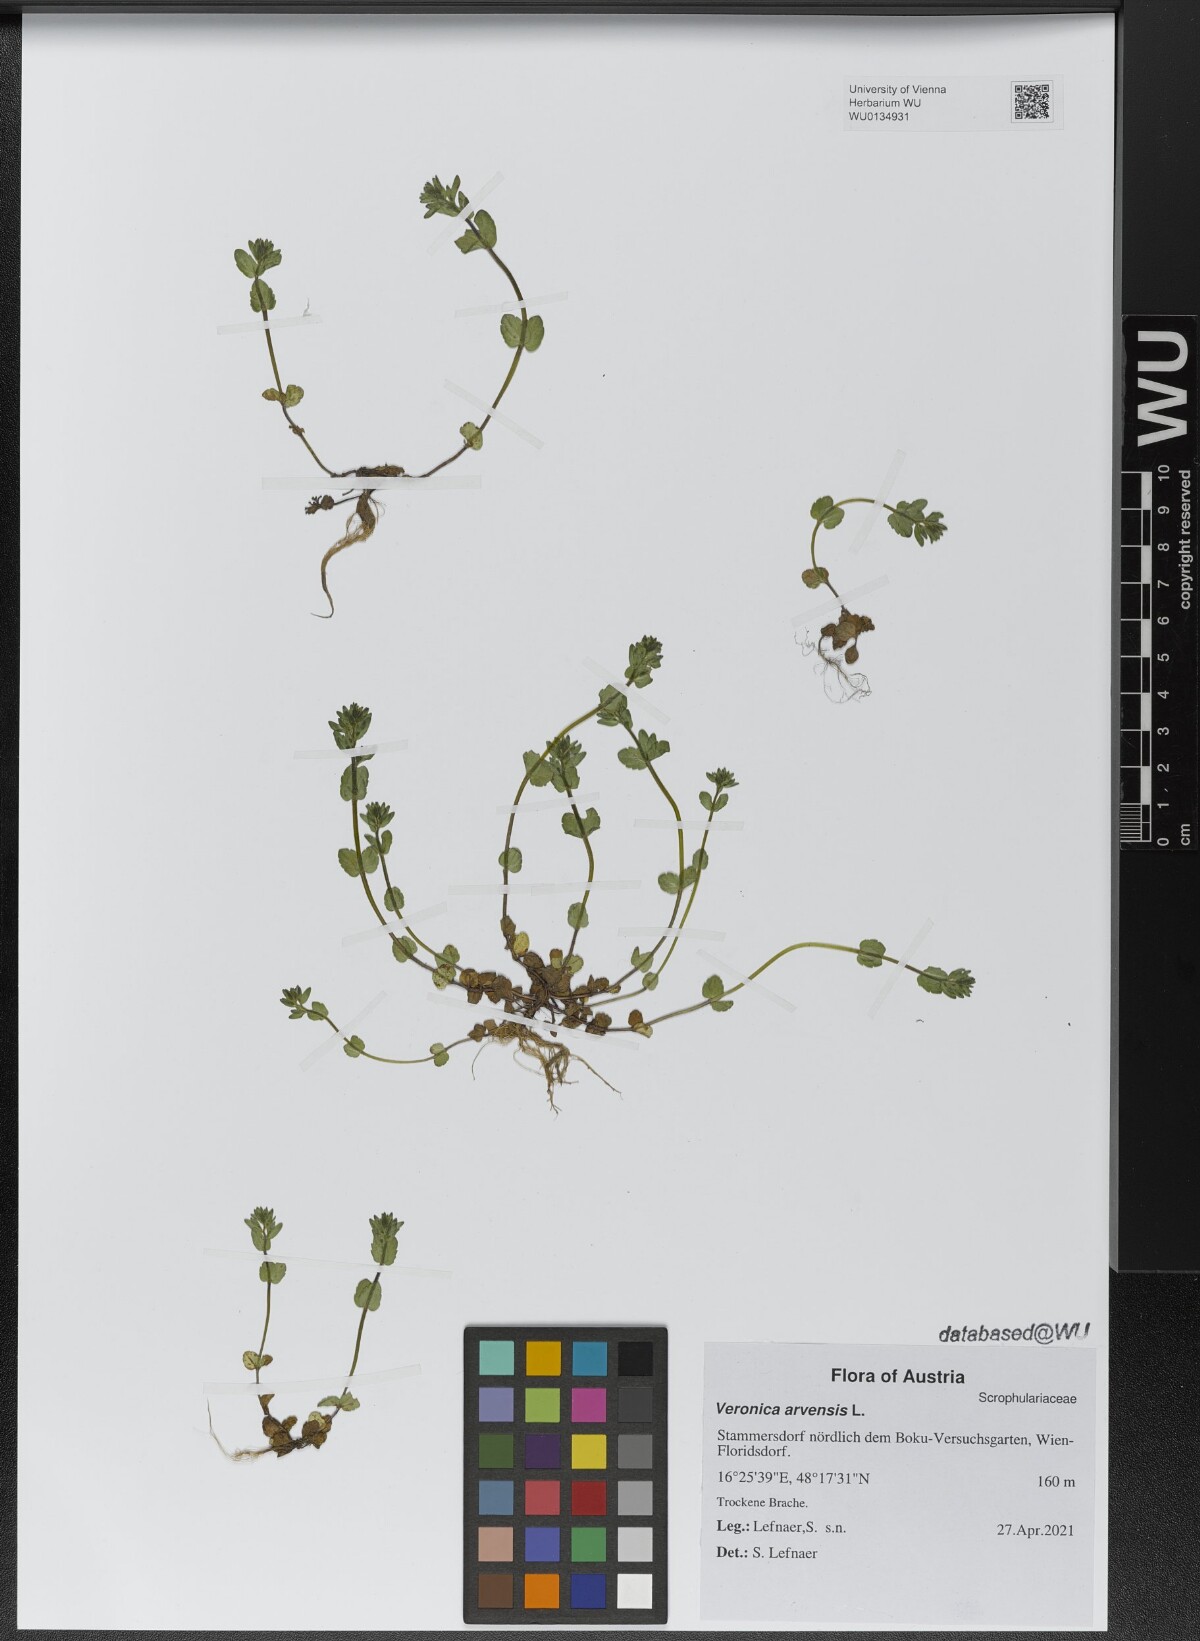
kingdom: Plantae
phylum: Tracheophyta
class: Magnoliopsida
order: Lamiales
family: Plantaginaceae
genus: Veronica
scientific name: Veronica arvensis
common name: Corn speedwell
